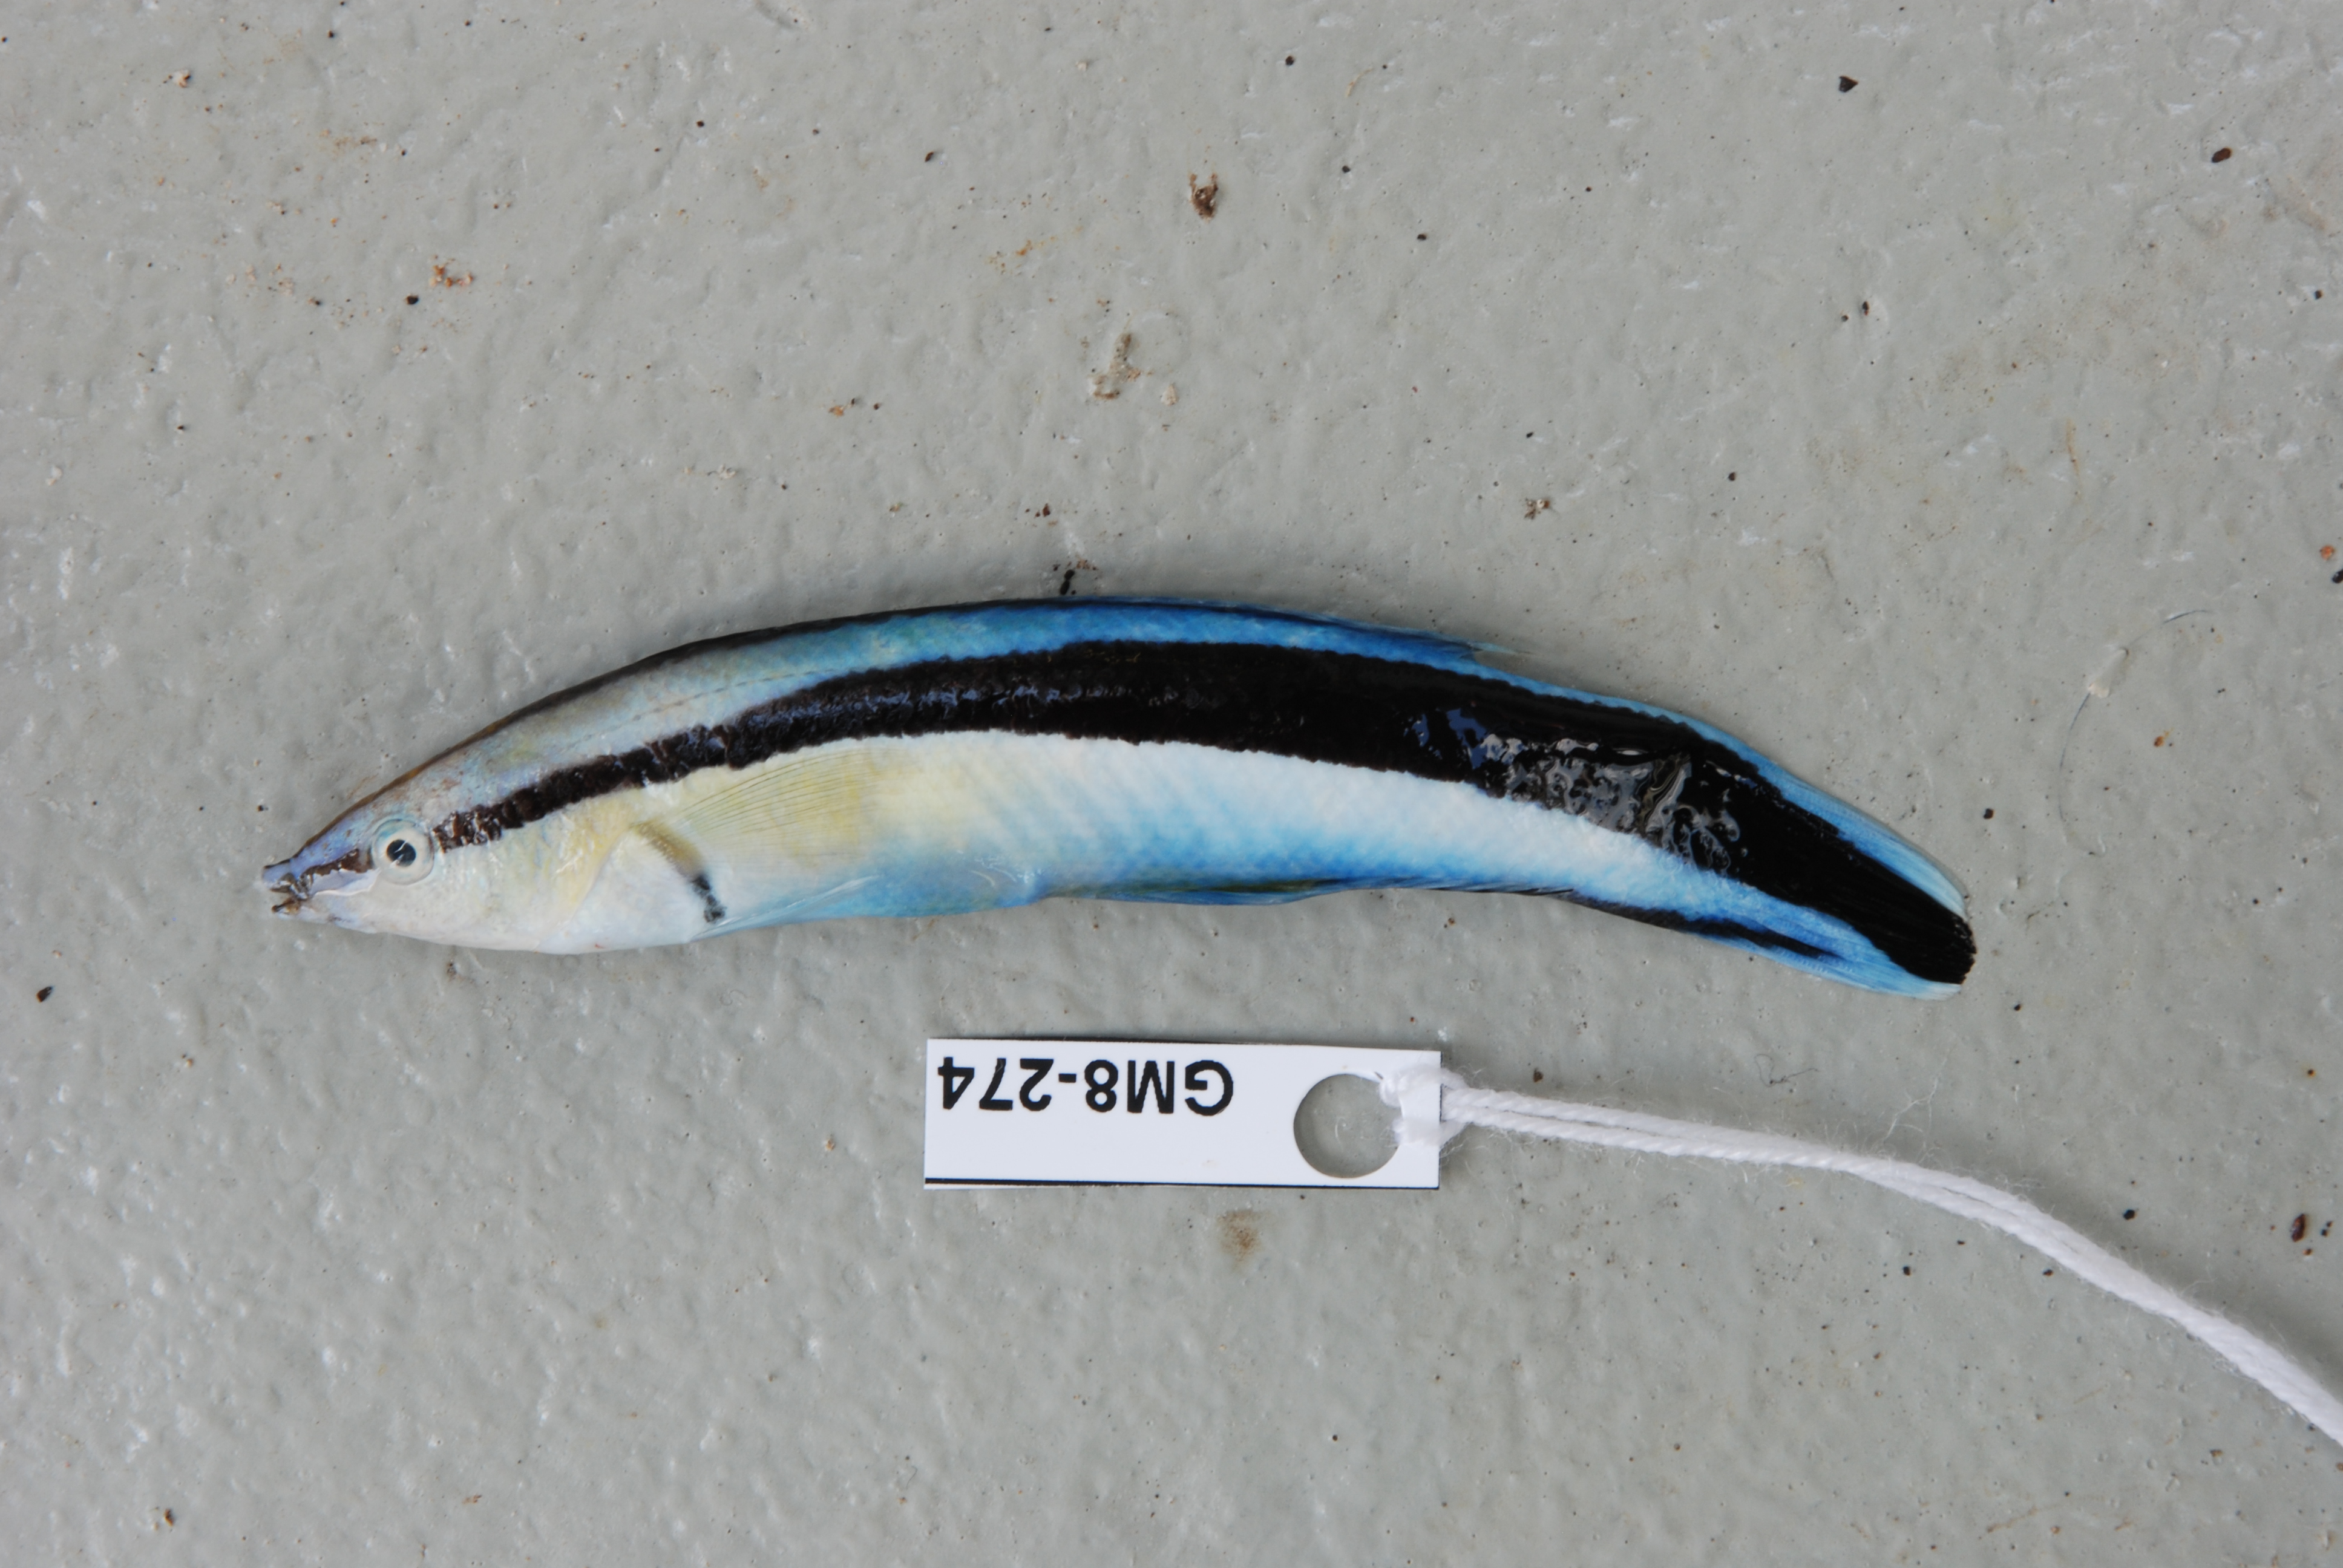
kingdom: Animalia
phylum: Chordata
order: Perciformes
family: Labridae
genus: Labroides
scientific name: Labroides dimidiatus
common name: Blue diesel wrasse
